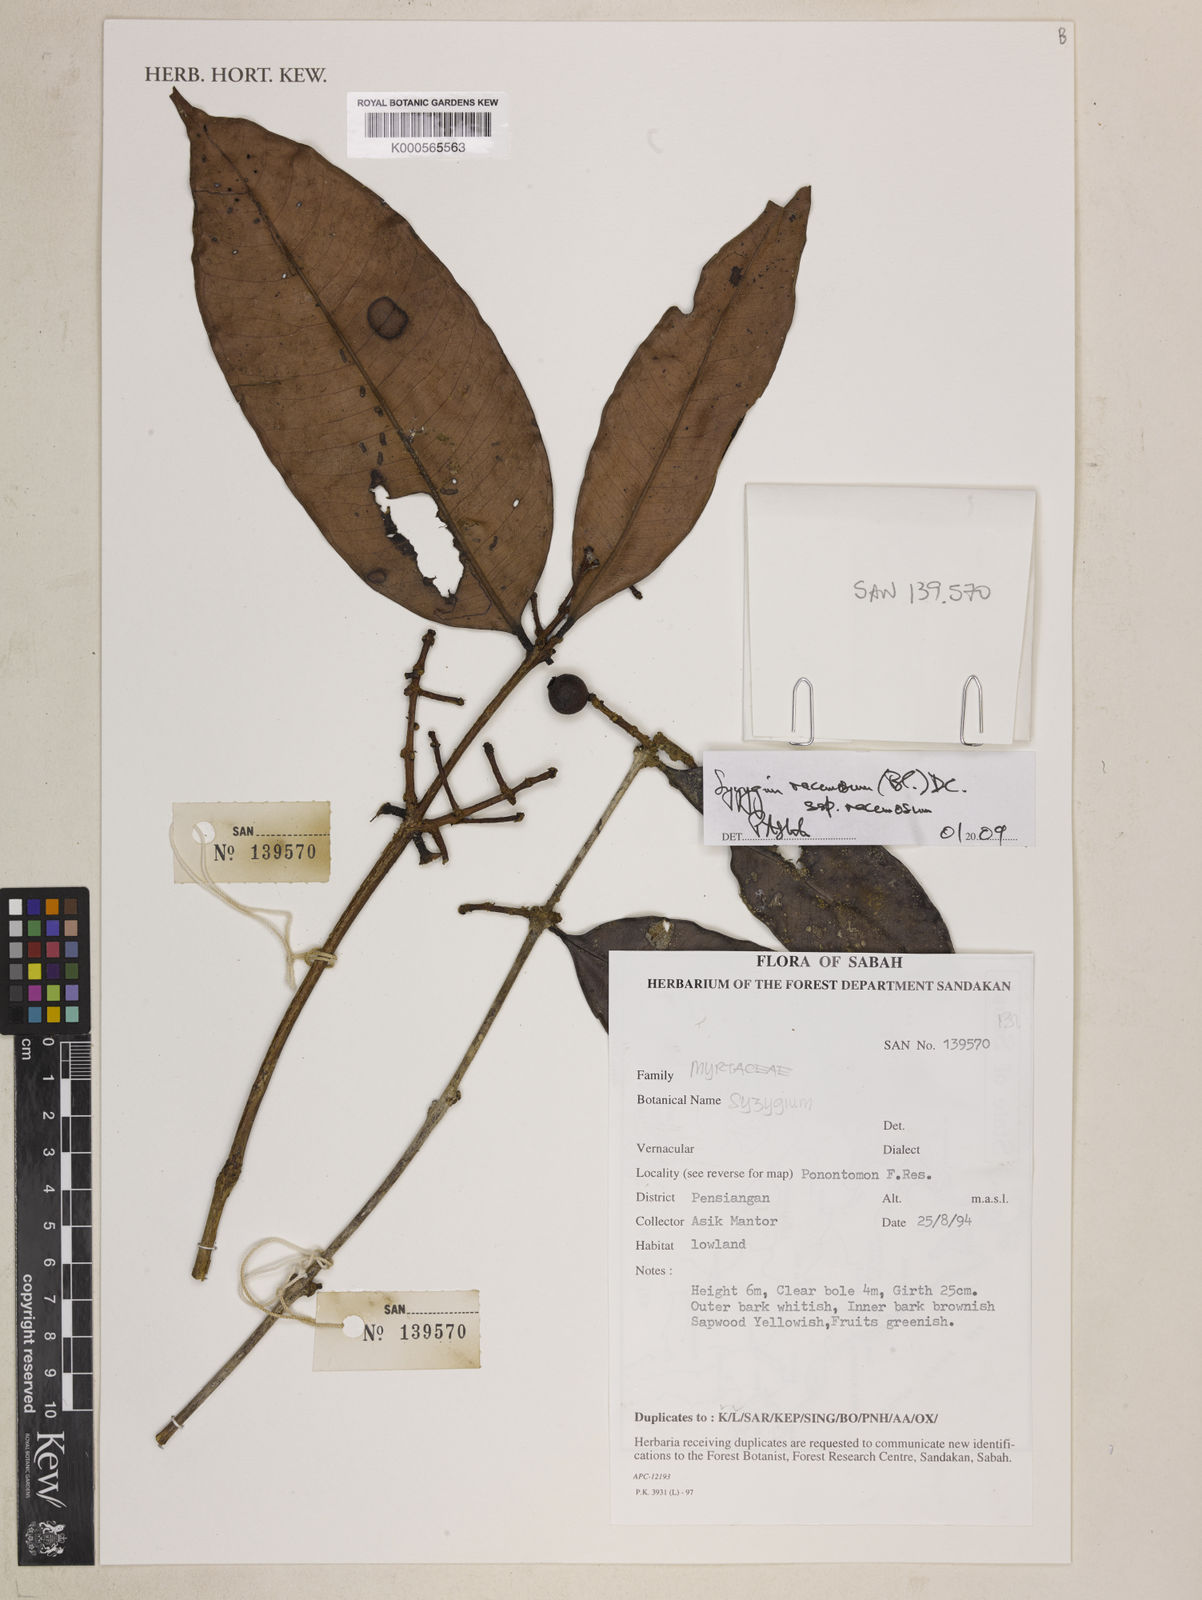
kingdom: Plantae
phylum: Tracheophyta
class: Magnoliopsida
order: Myrtales
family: Myrtaceae
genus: Syzygium
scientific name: Syzygium racemosum
